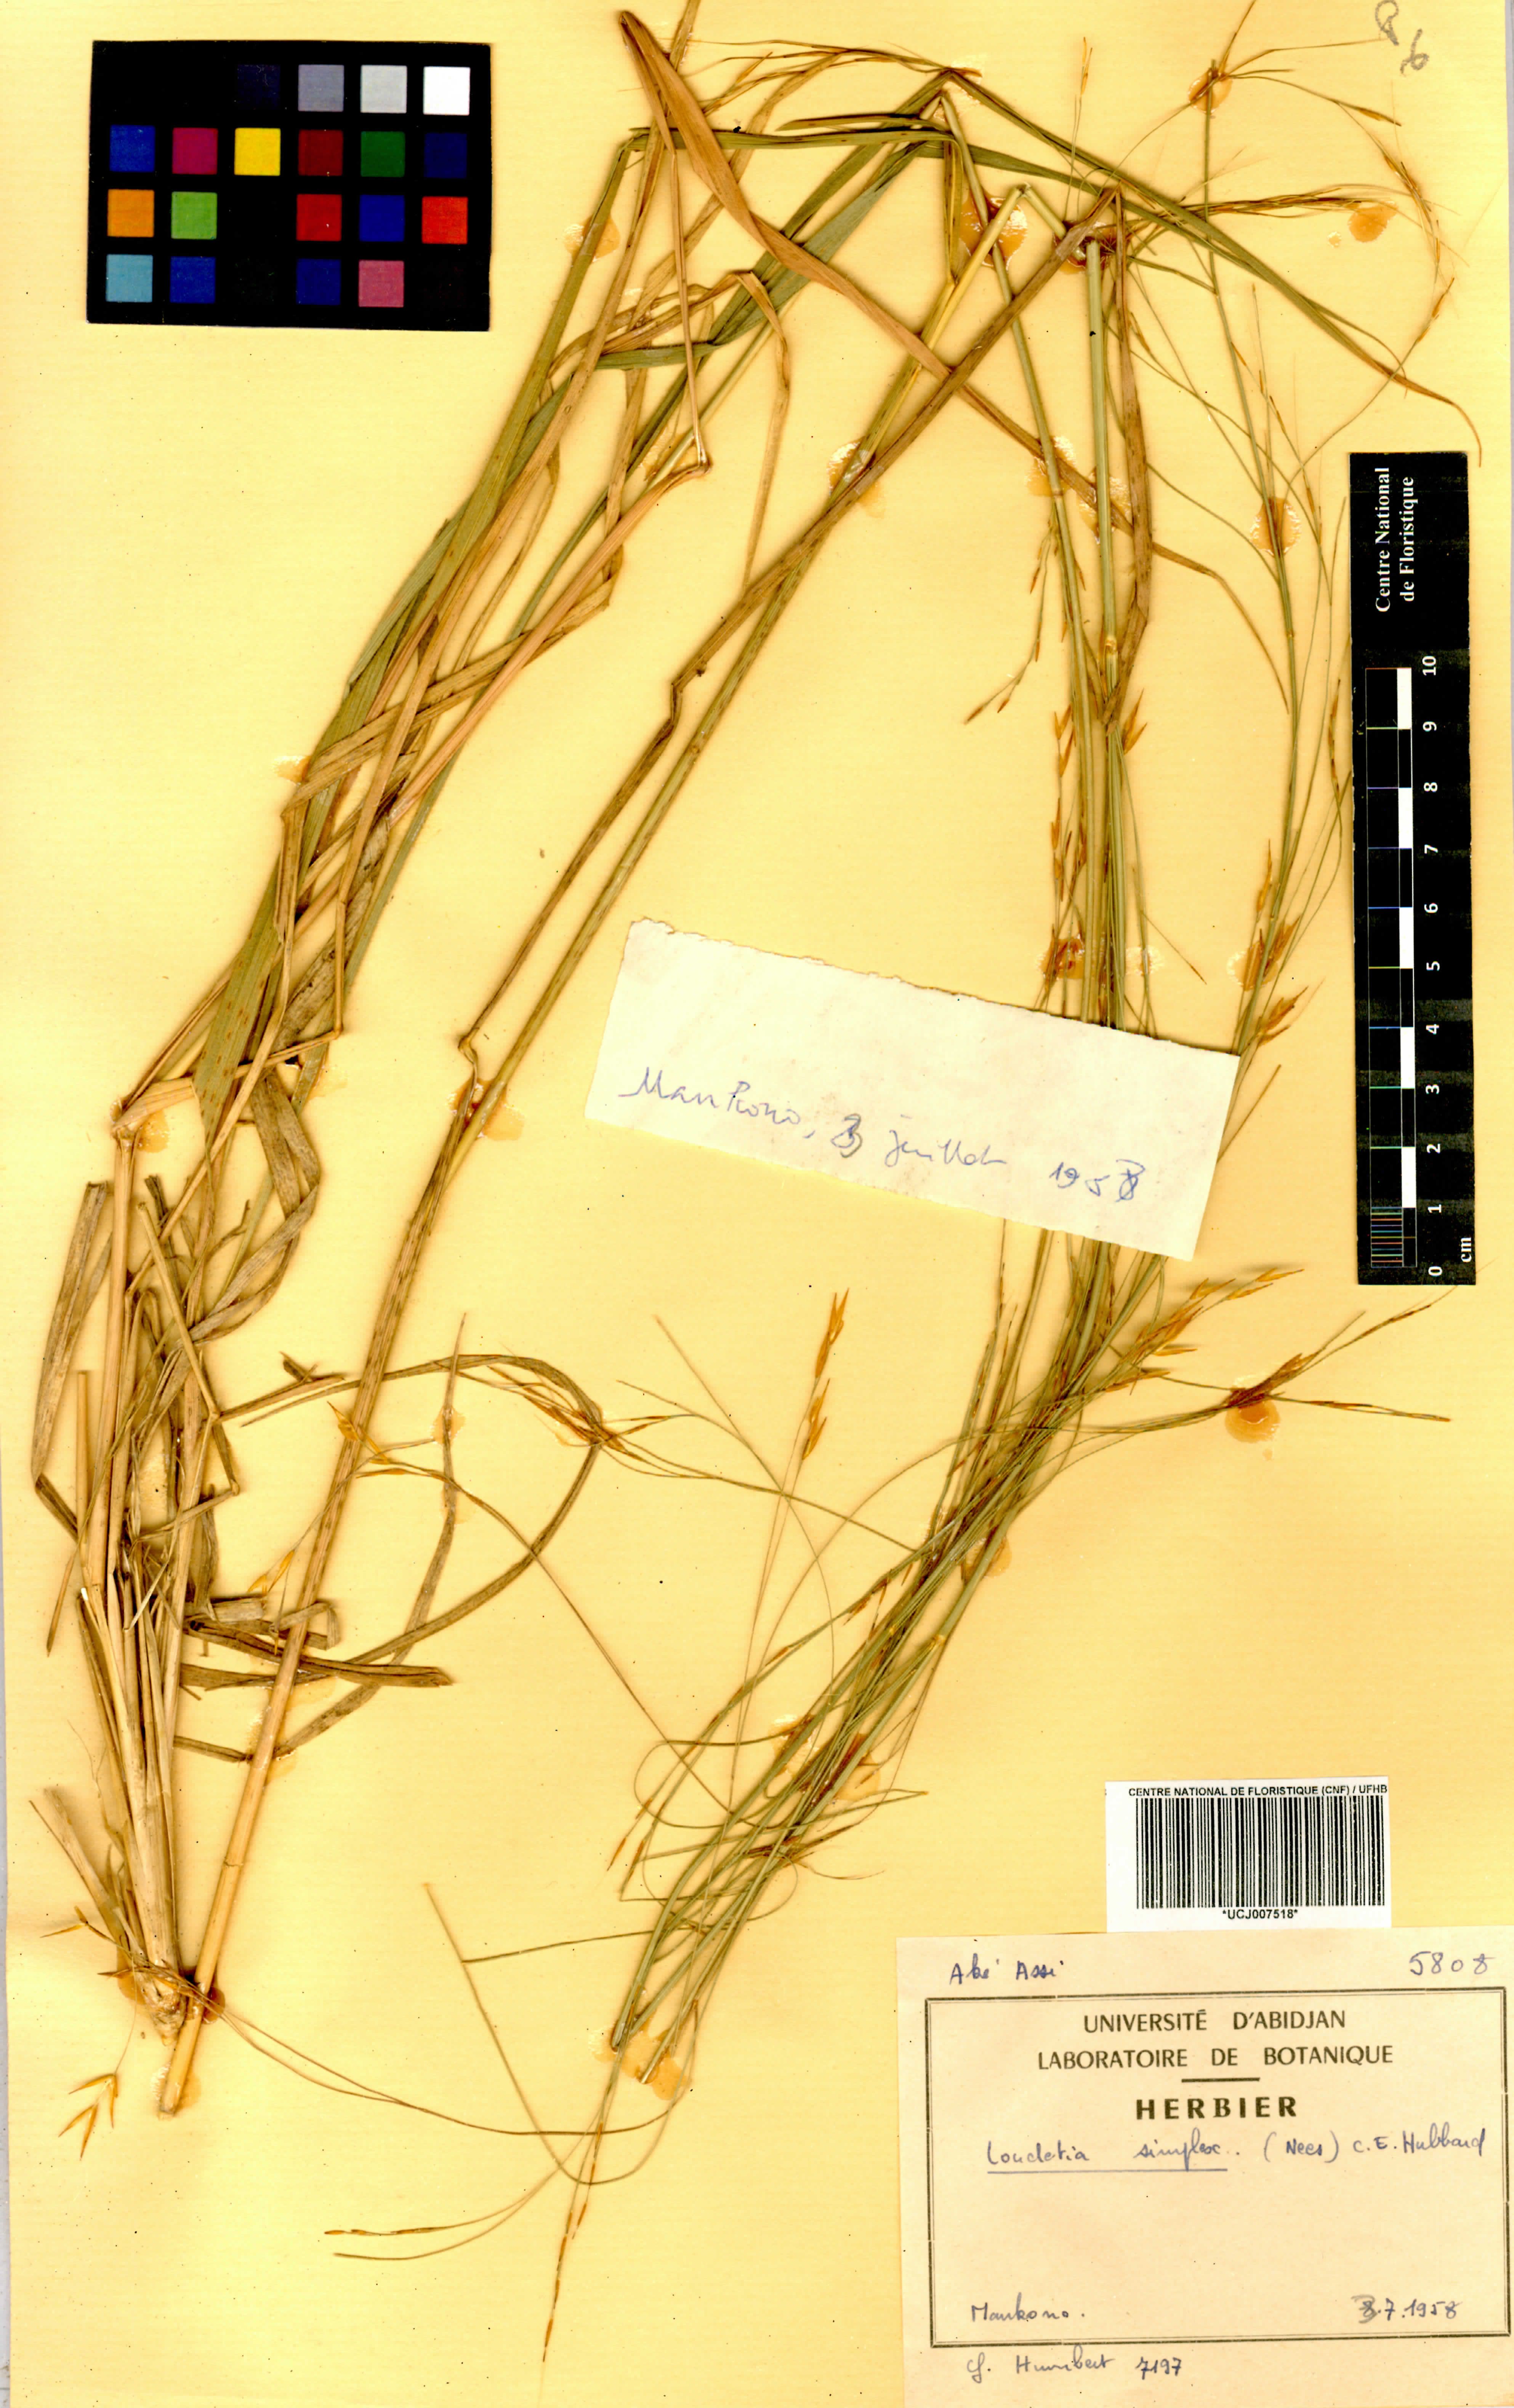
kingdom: Plantae
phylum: Tracheophyta
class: Liliopsida
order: Poales
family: Poaceae
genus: Loudetia
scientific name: Loudetia simplex
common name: Common russet grass
